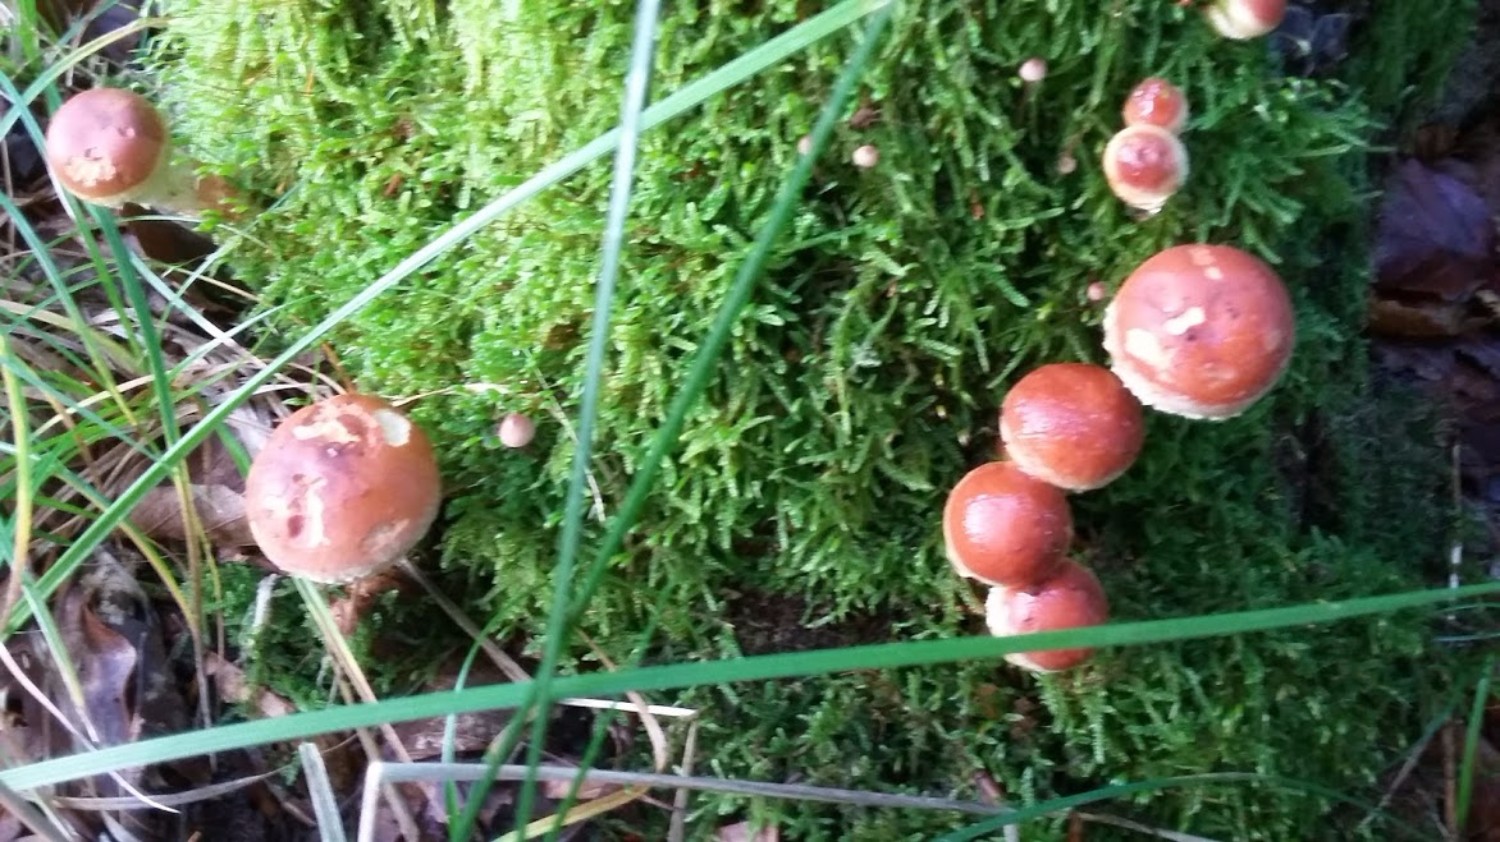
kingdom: Fungi
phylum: Basidiomycota
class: Agaricomycetes
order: Agaricales
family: Strophariaceae
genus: Hypholoma
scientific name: Hypholoma lateritium
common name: teglrød svovlhat
